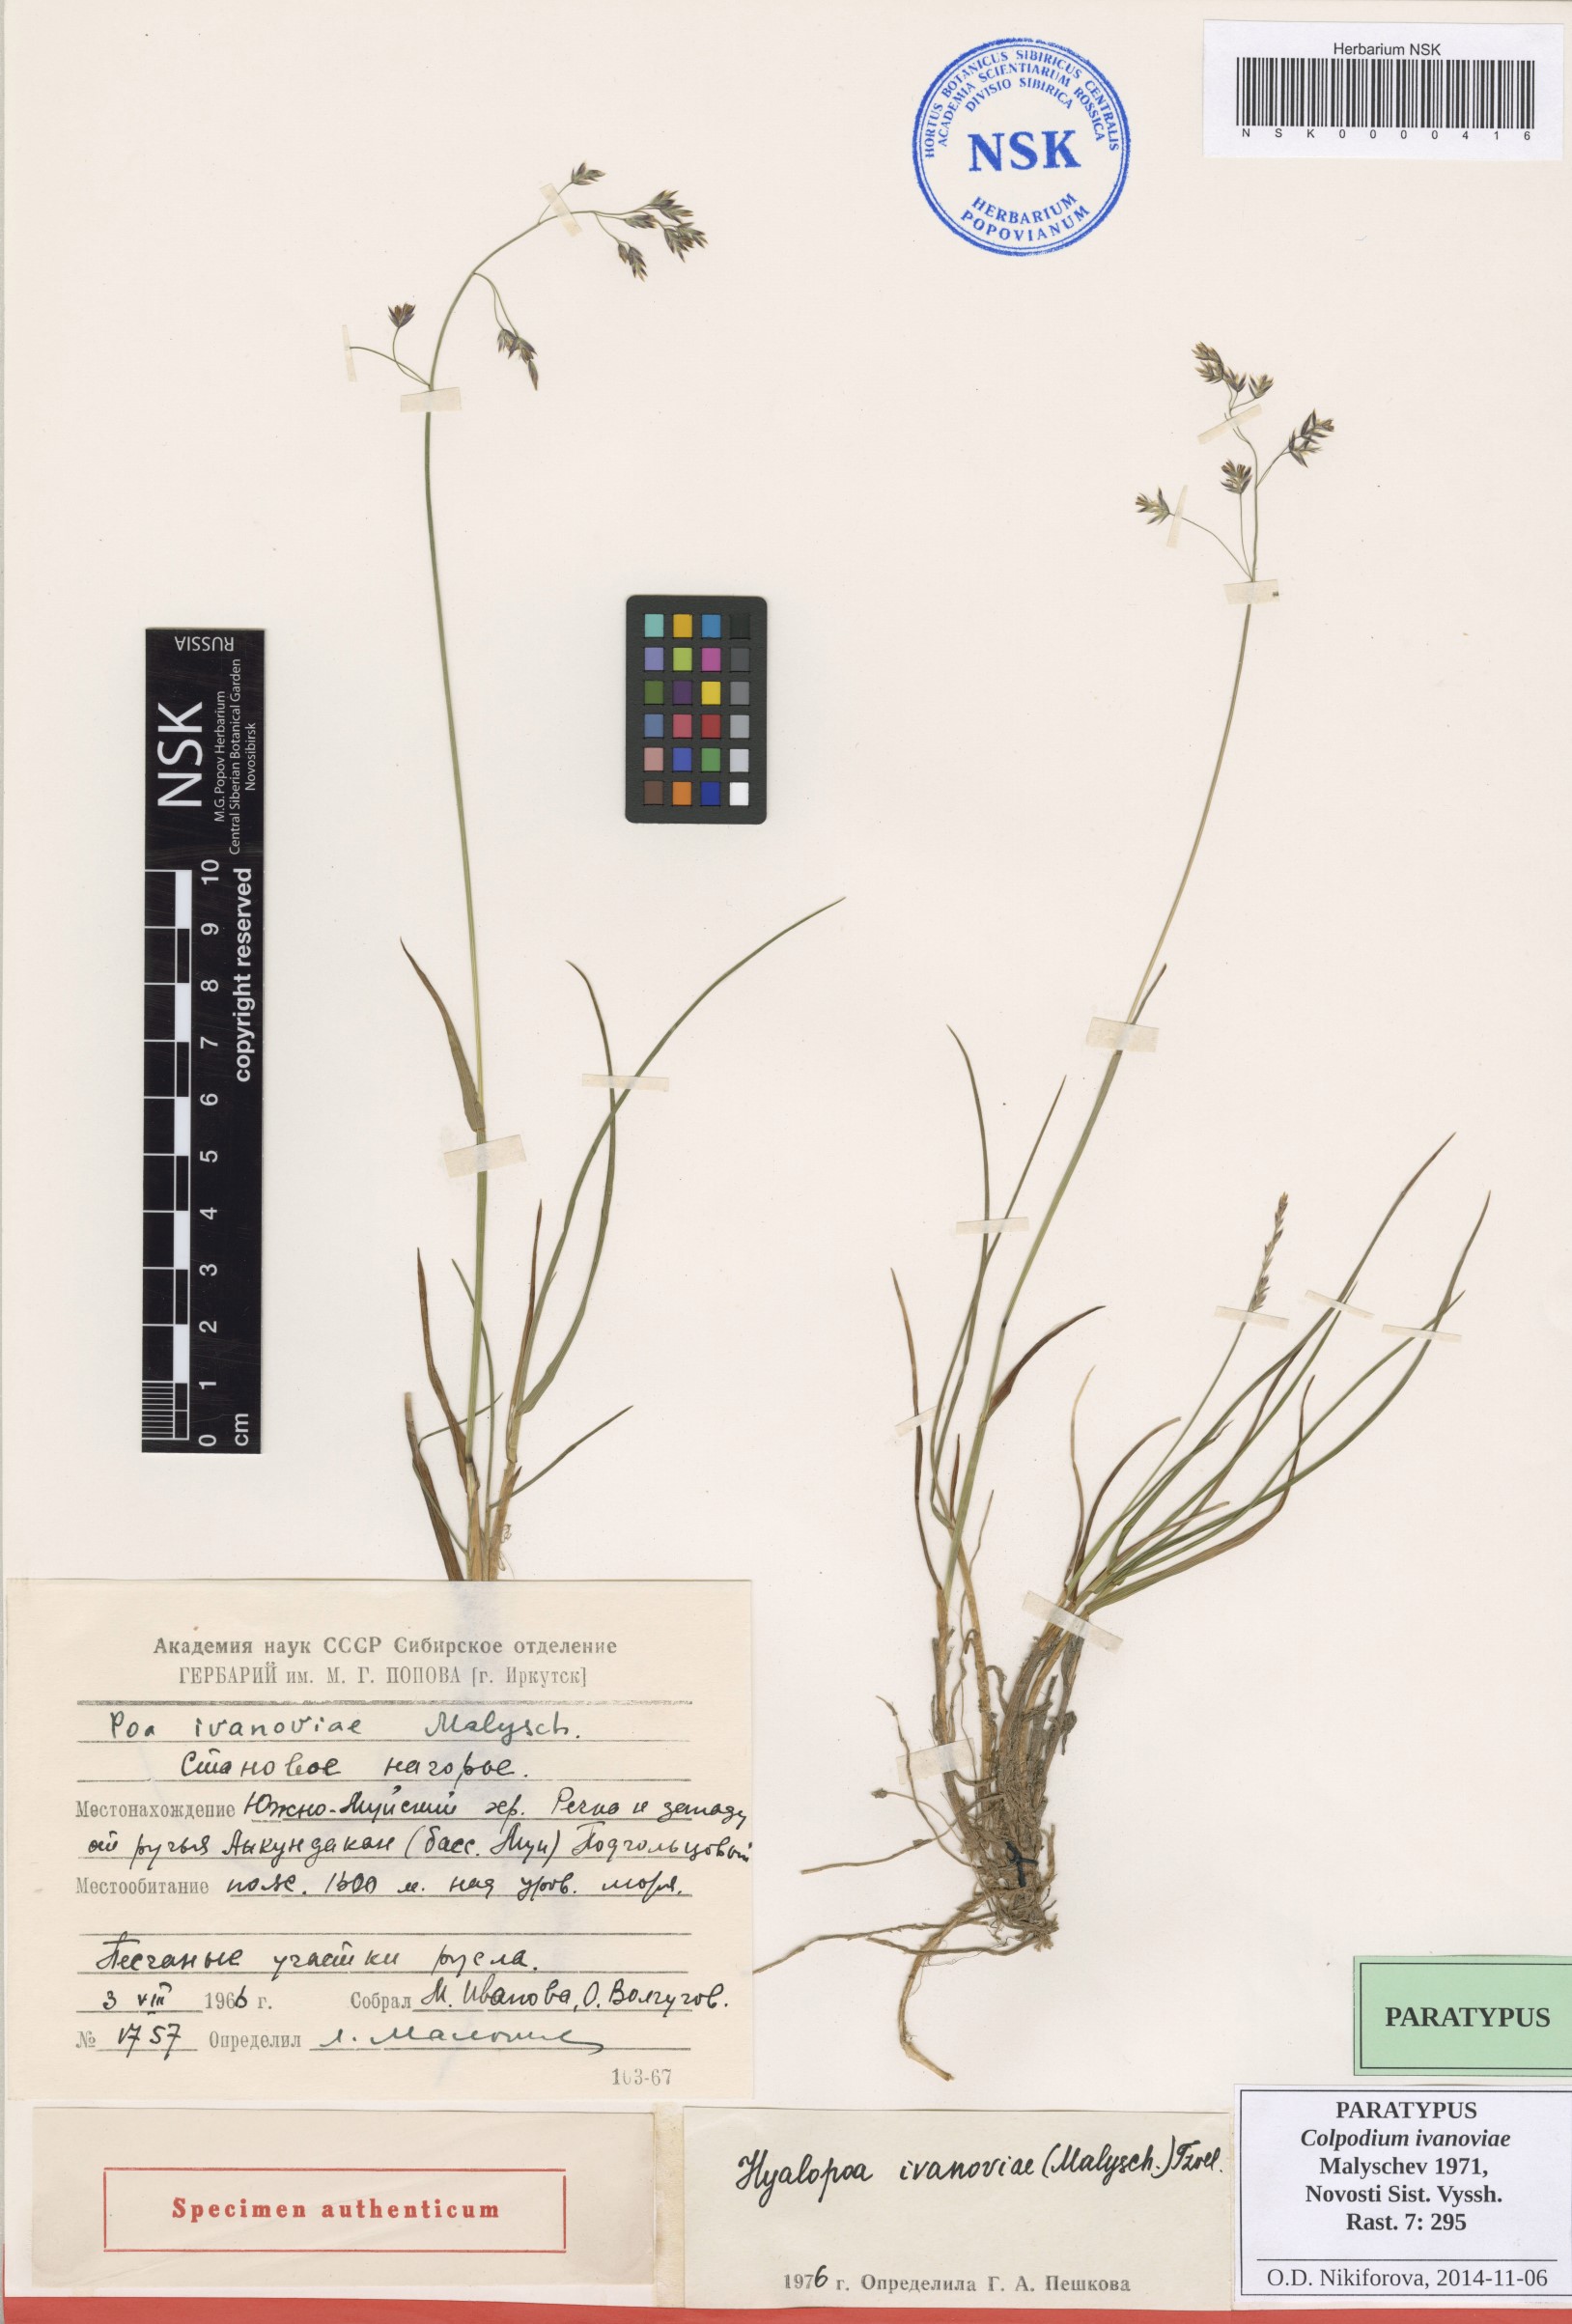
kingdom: Plantae
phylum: Tracheophyta
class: Liliopsida
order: Poales
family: Poaceae
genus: Arctohyalopoa
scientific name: Arctohyalopoa lanatiflora
